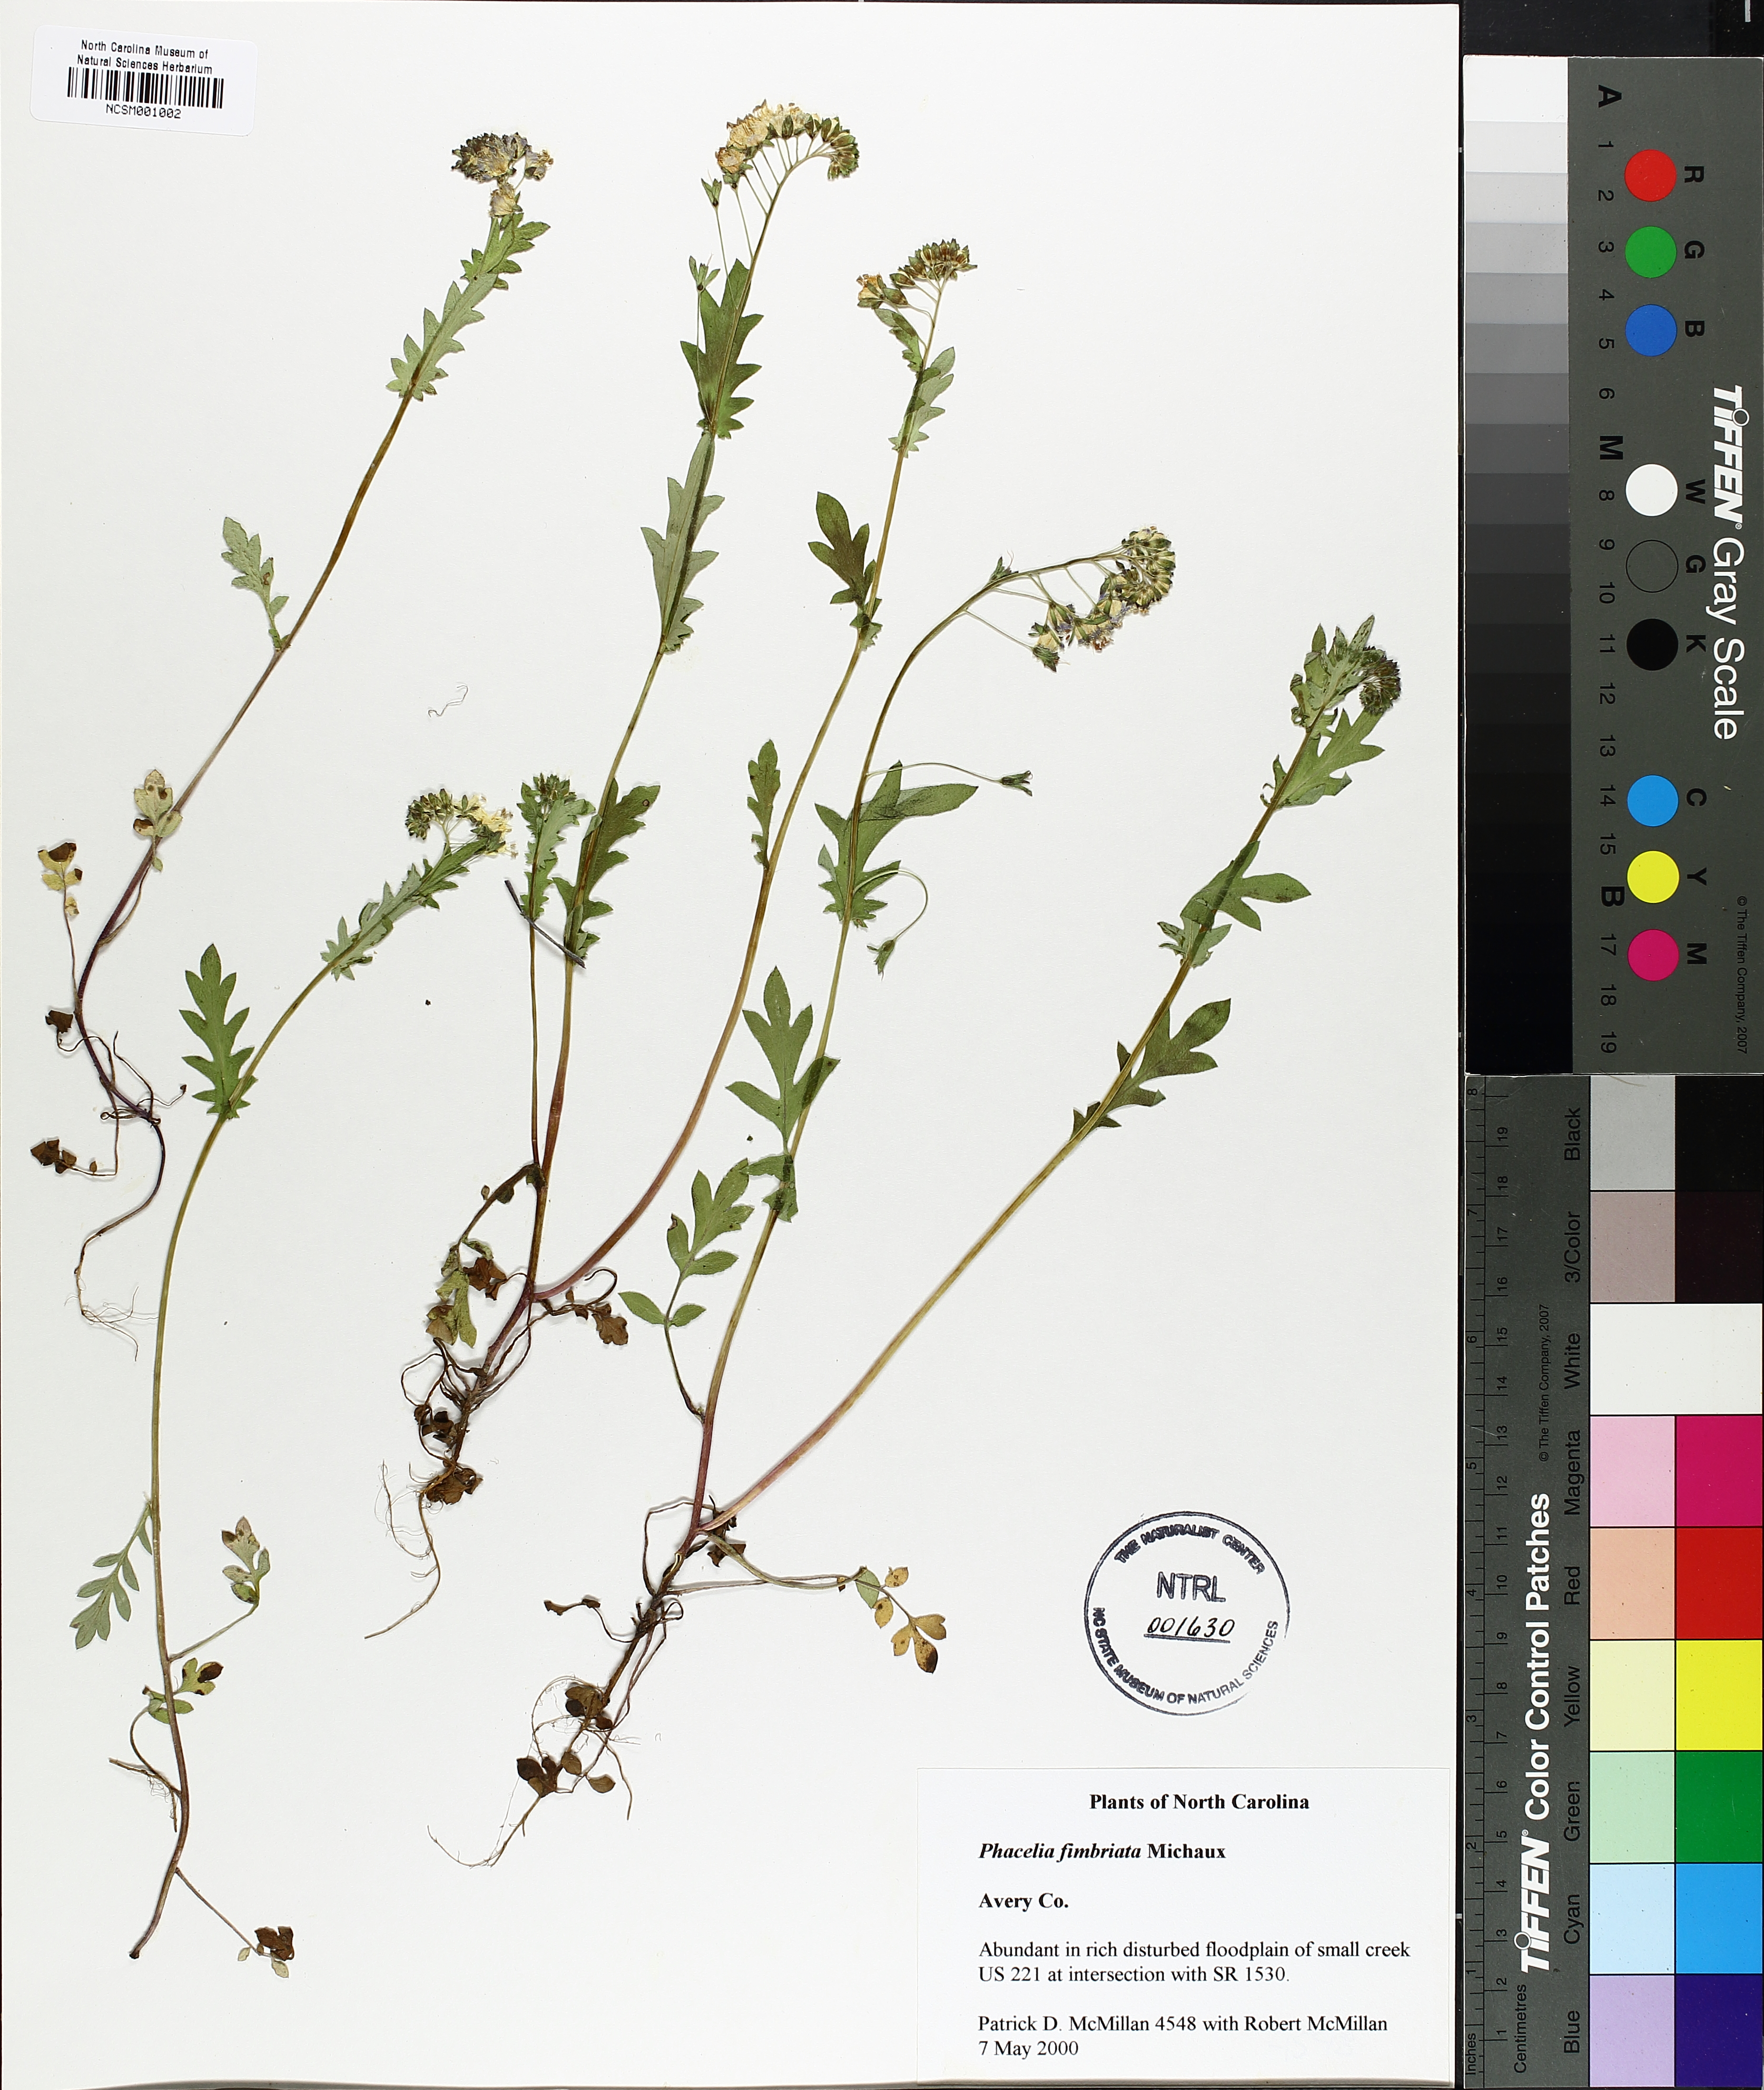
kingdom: Plantae
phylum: Tracheophyta
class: Magnoliopsida
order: Boraginales
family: Hydrophyllaceae
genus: Phacelia
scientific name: Phacelia fimbriata
